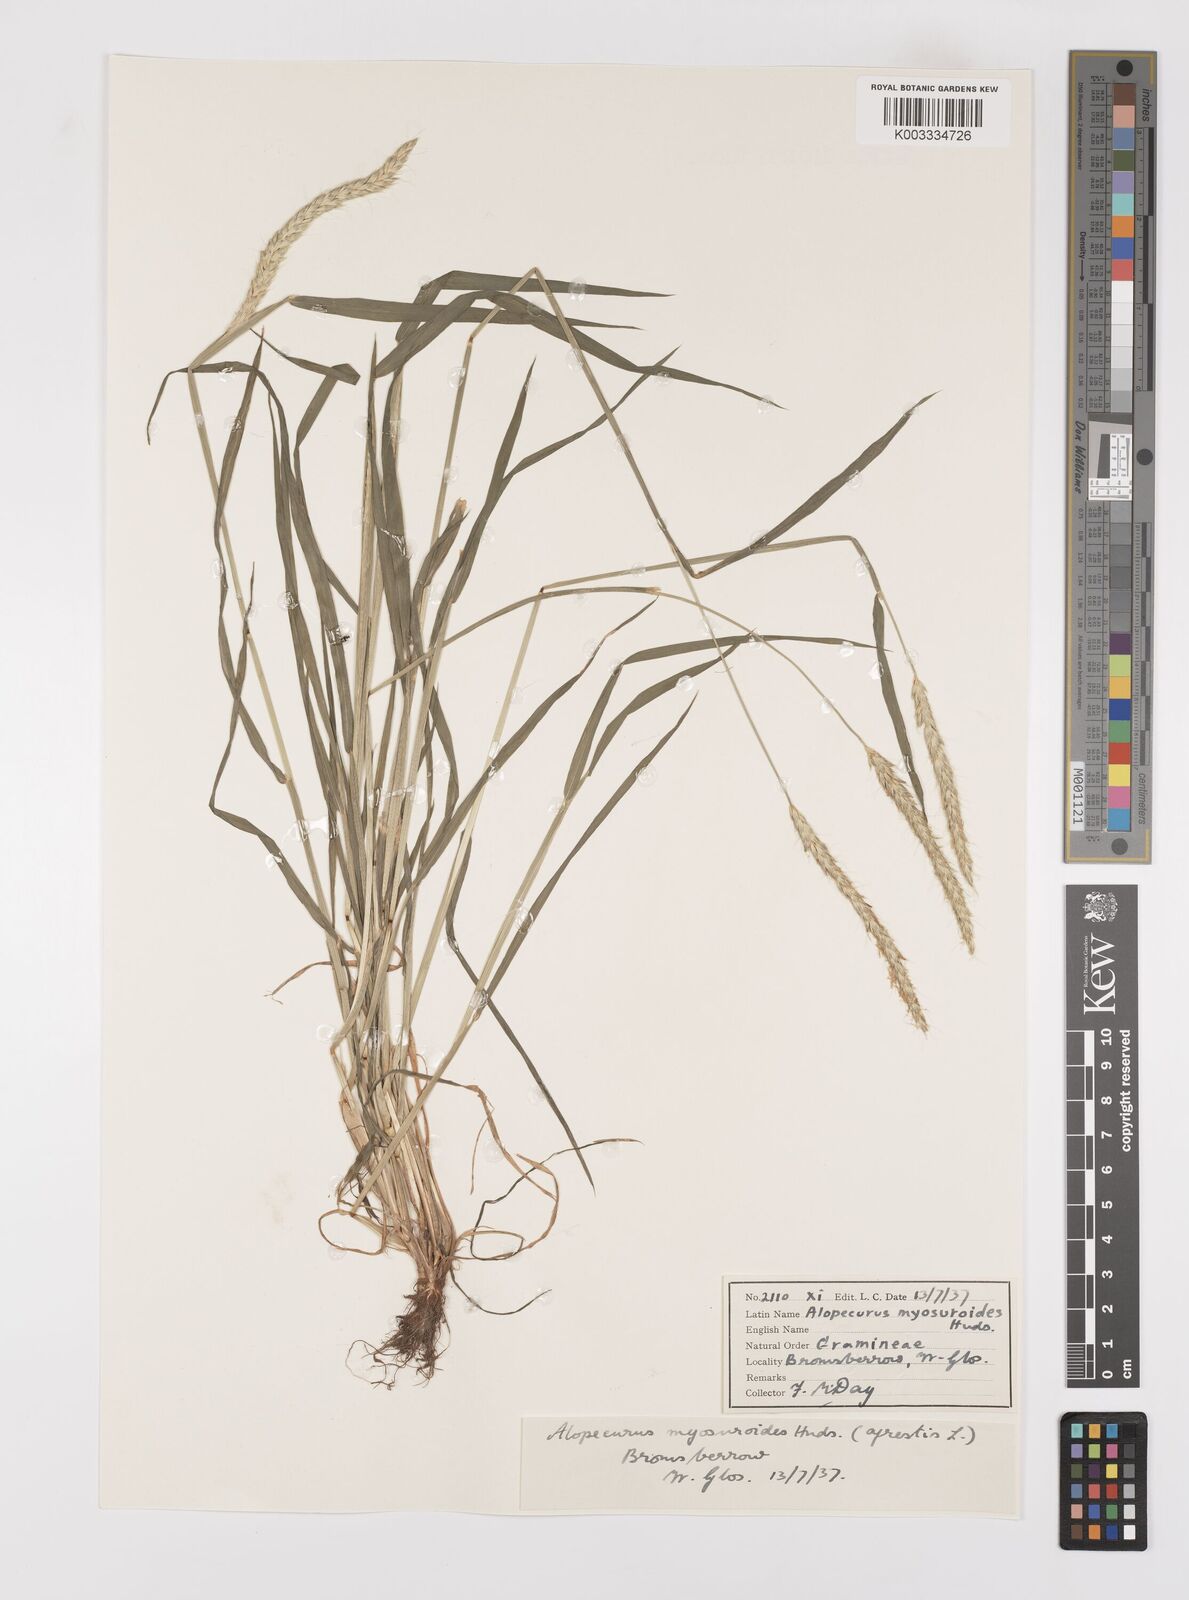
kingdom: Plantae
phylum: Tracheophyta
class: Liliopsida
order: Poales
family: Poaceae
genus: Alopecurus
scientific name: Alopecurus myosuroides
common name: Black-grass
